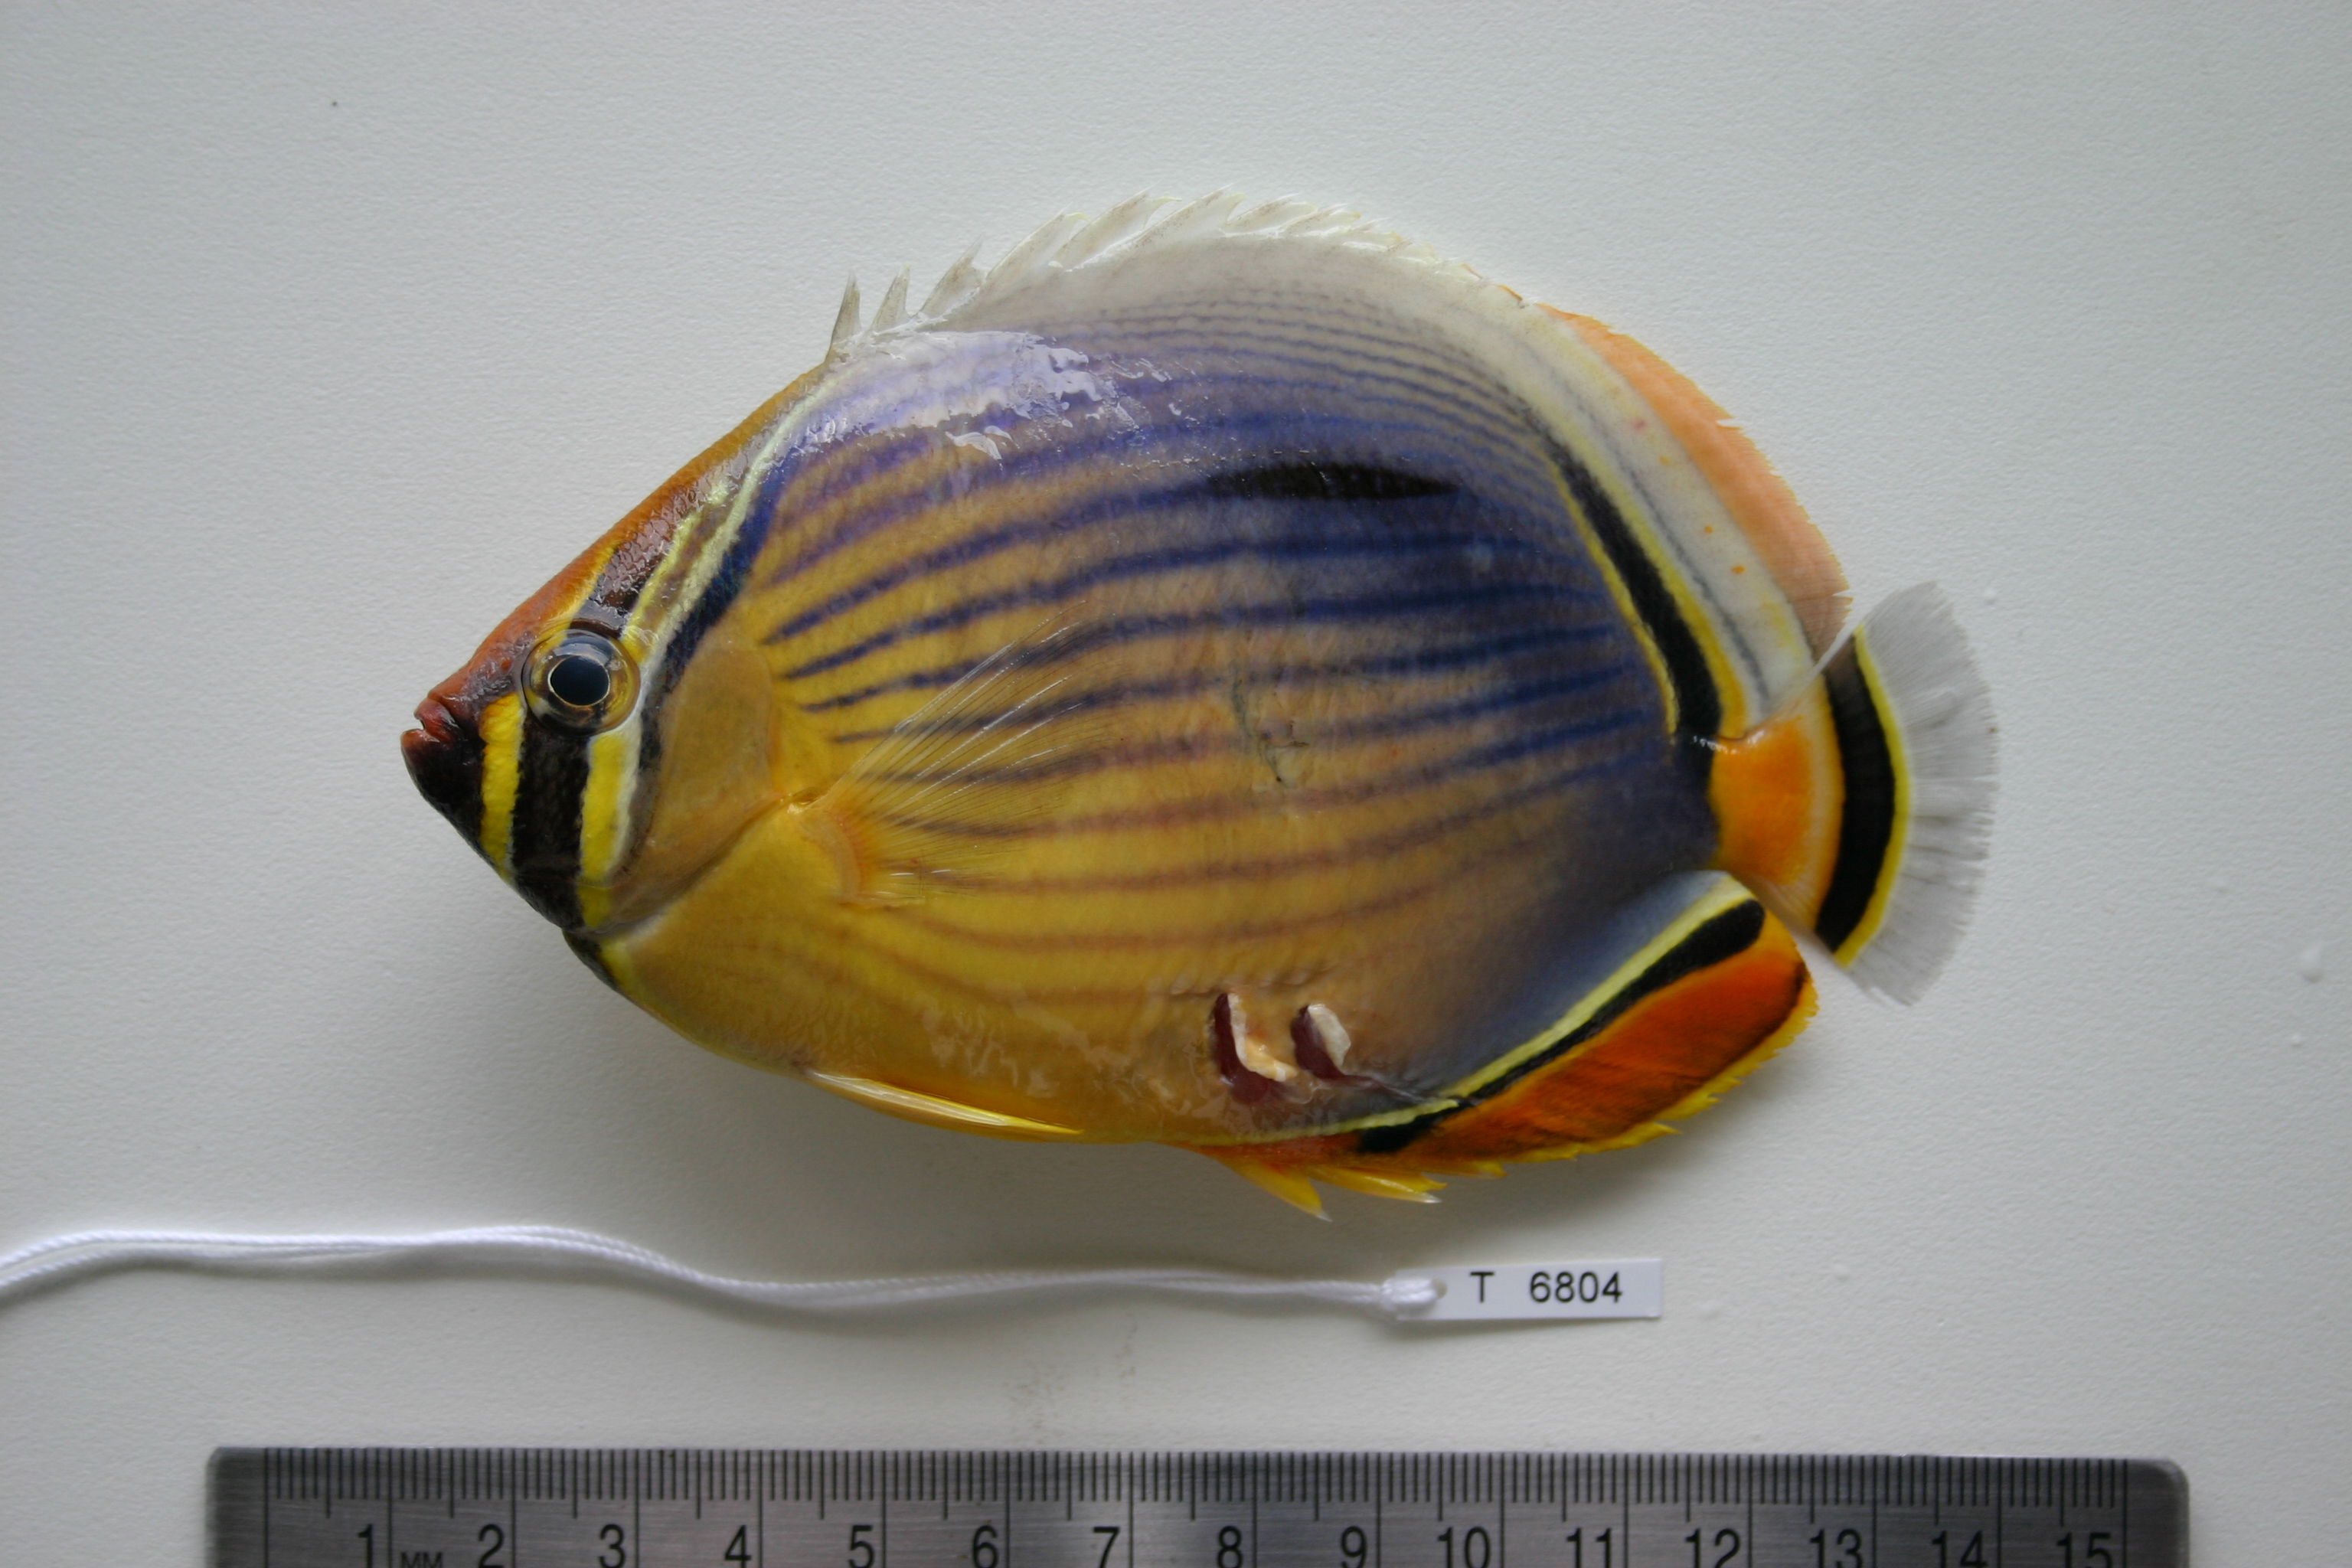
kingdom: Animalia
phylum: Chordata
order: Perciformes
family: Chaetodontidae
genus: Chaetodon
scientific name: Chaetodon trifasciatus
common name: Redfin butterflyfish
